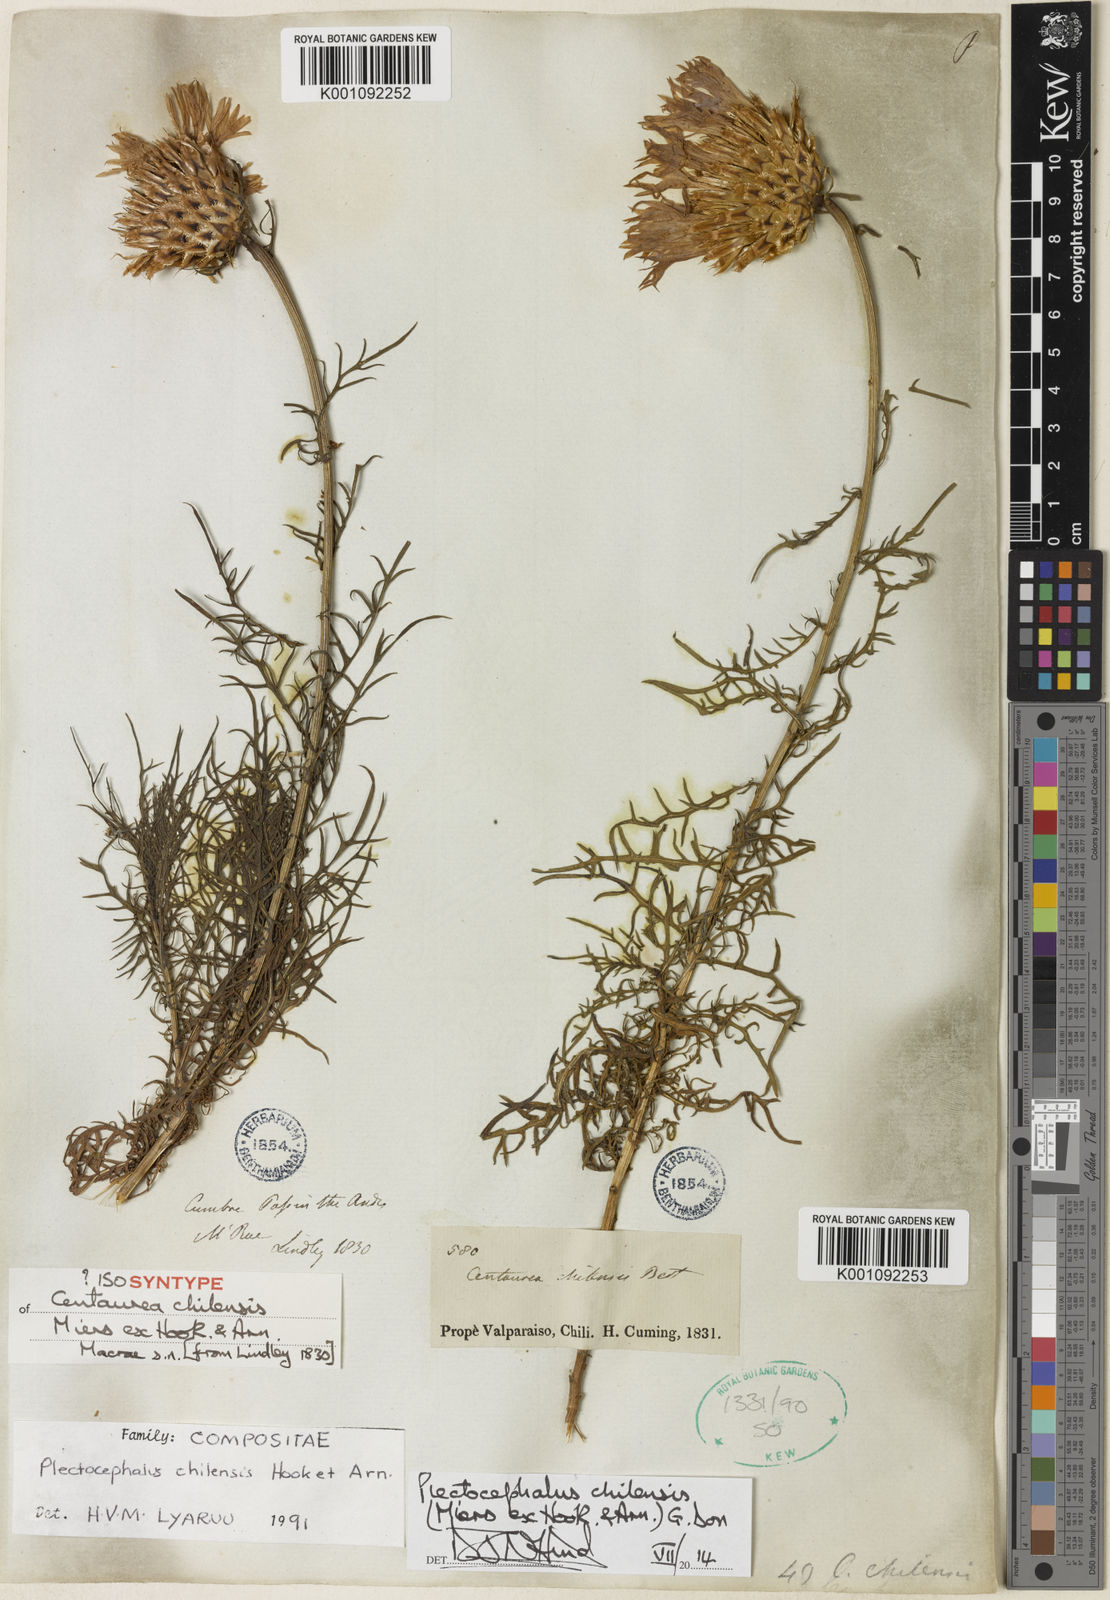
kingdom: Plantae
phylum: Tracheophyta
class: Magnoliopsida
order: Asterales
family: Asteraceae
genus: Plectocephalus
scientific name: Plectocephalus chilensis
